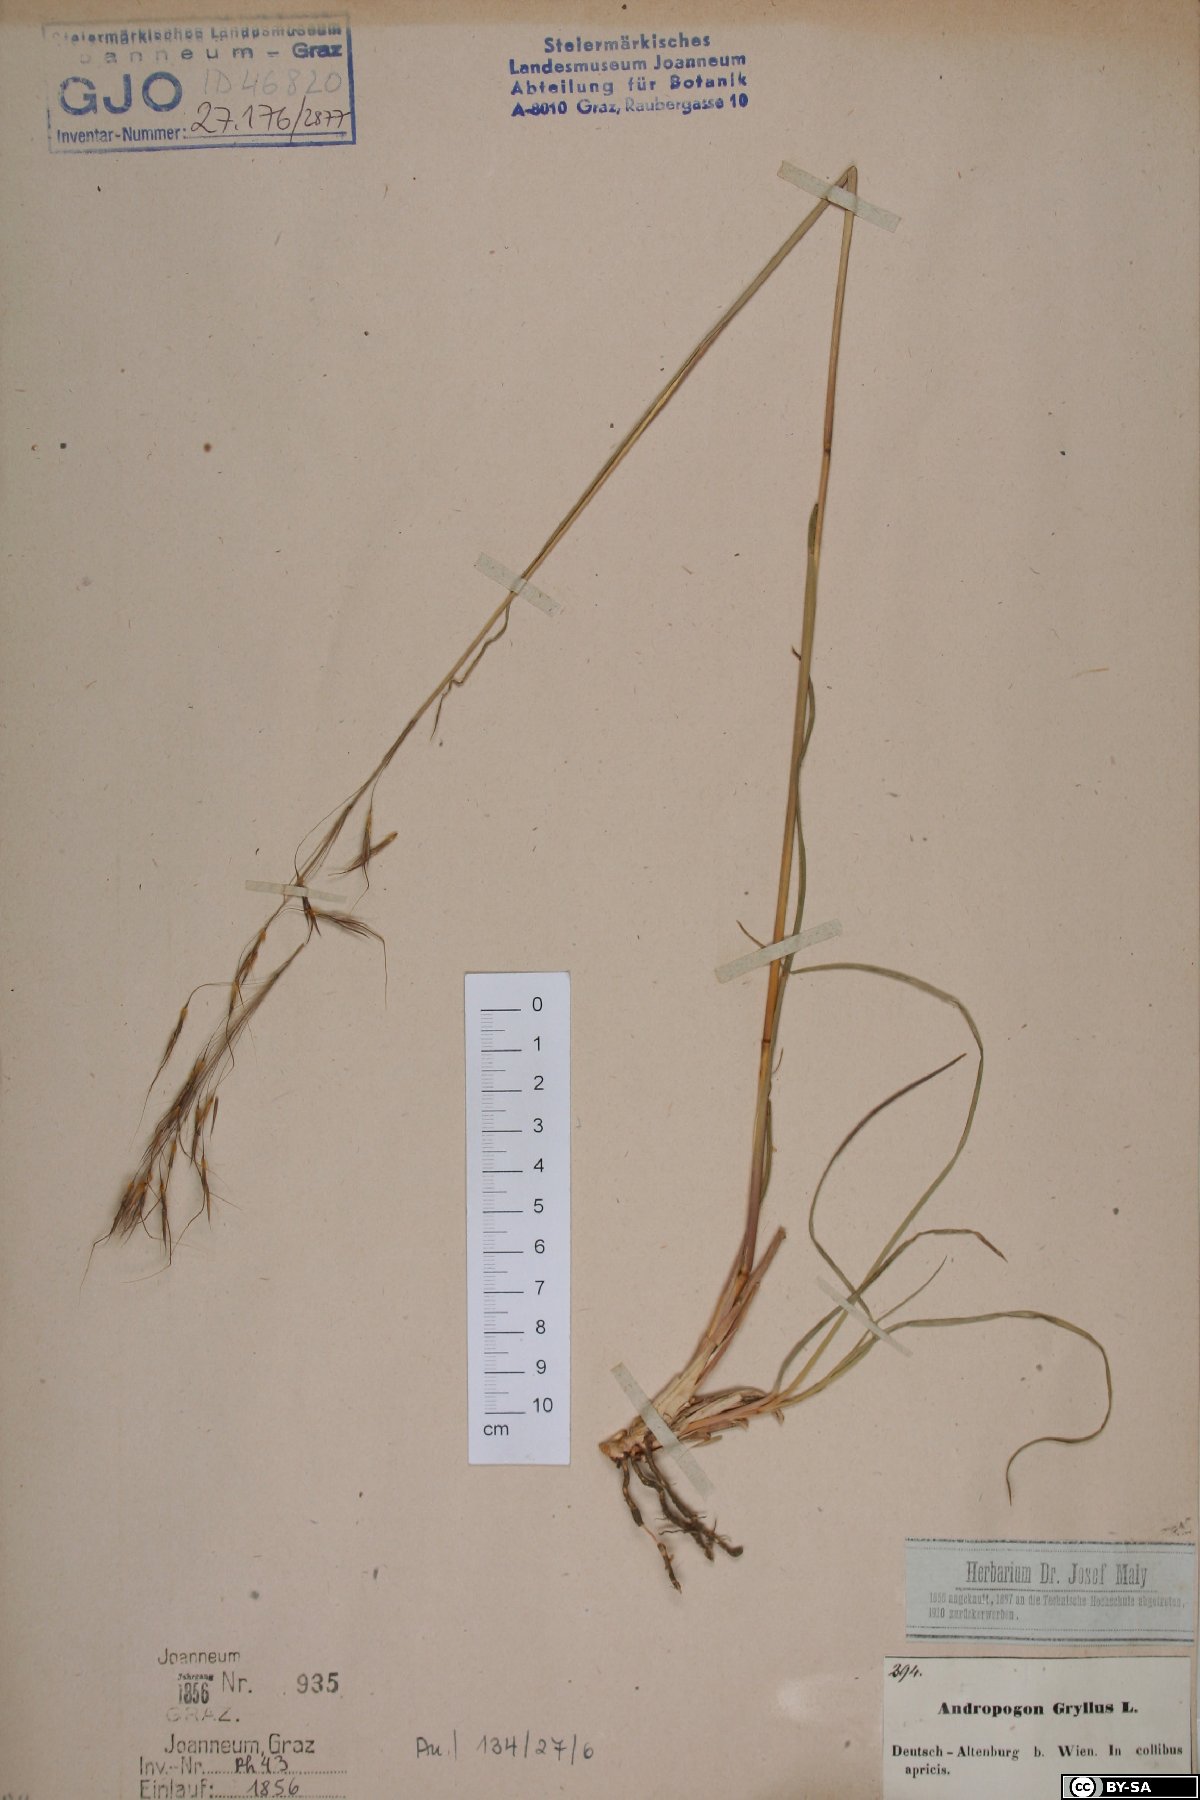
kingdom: Plantae
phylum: Tracheophyta
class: Liliopsida
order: Poales
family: Poaceae
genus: Chrysopogon
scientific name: Chrysopogon gryllus
